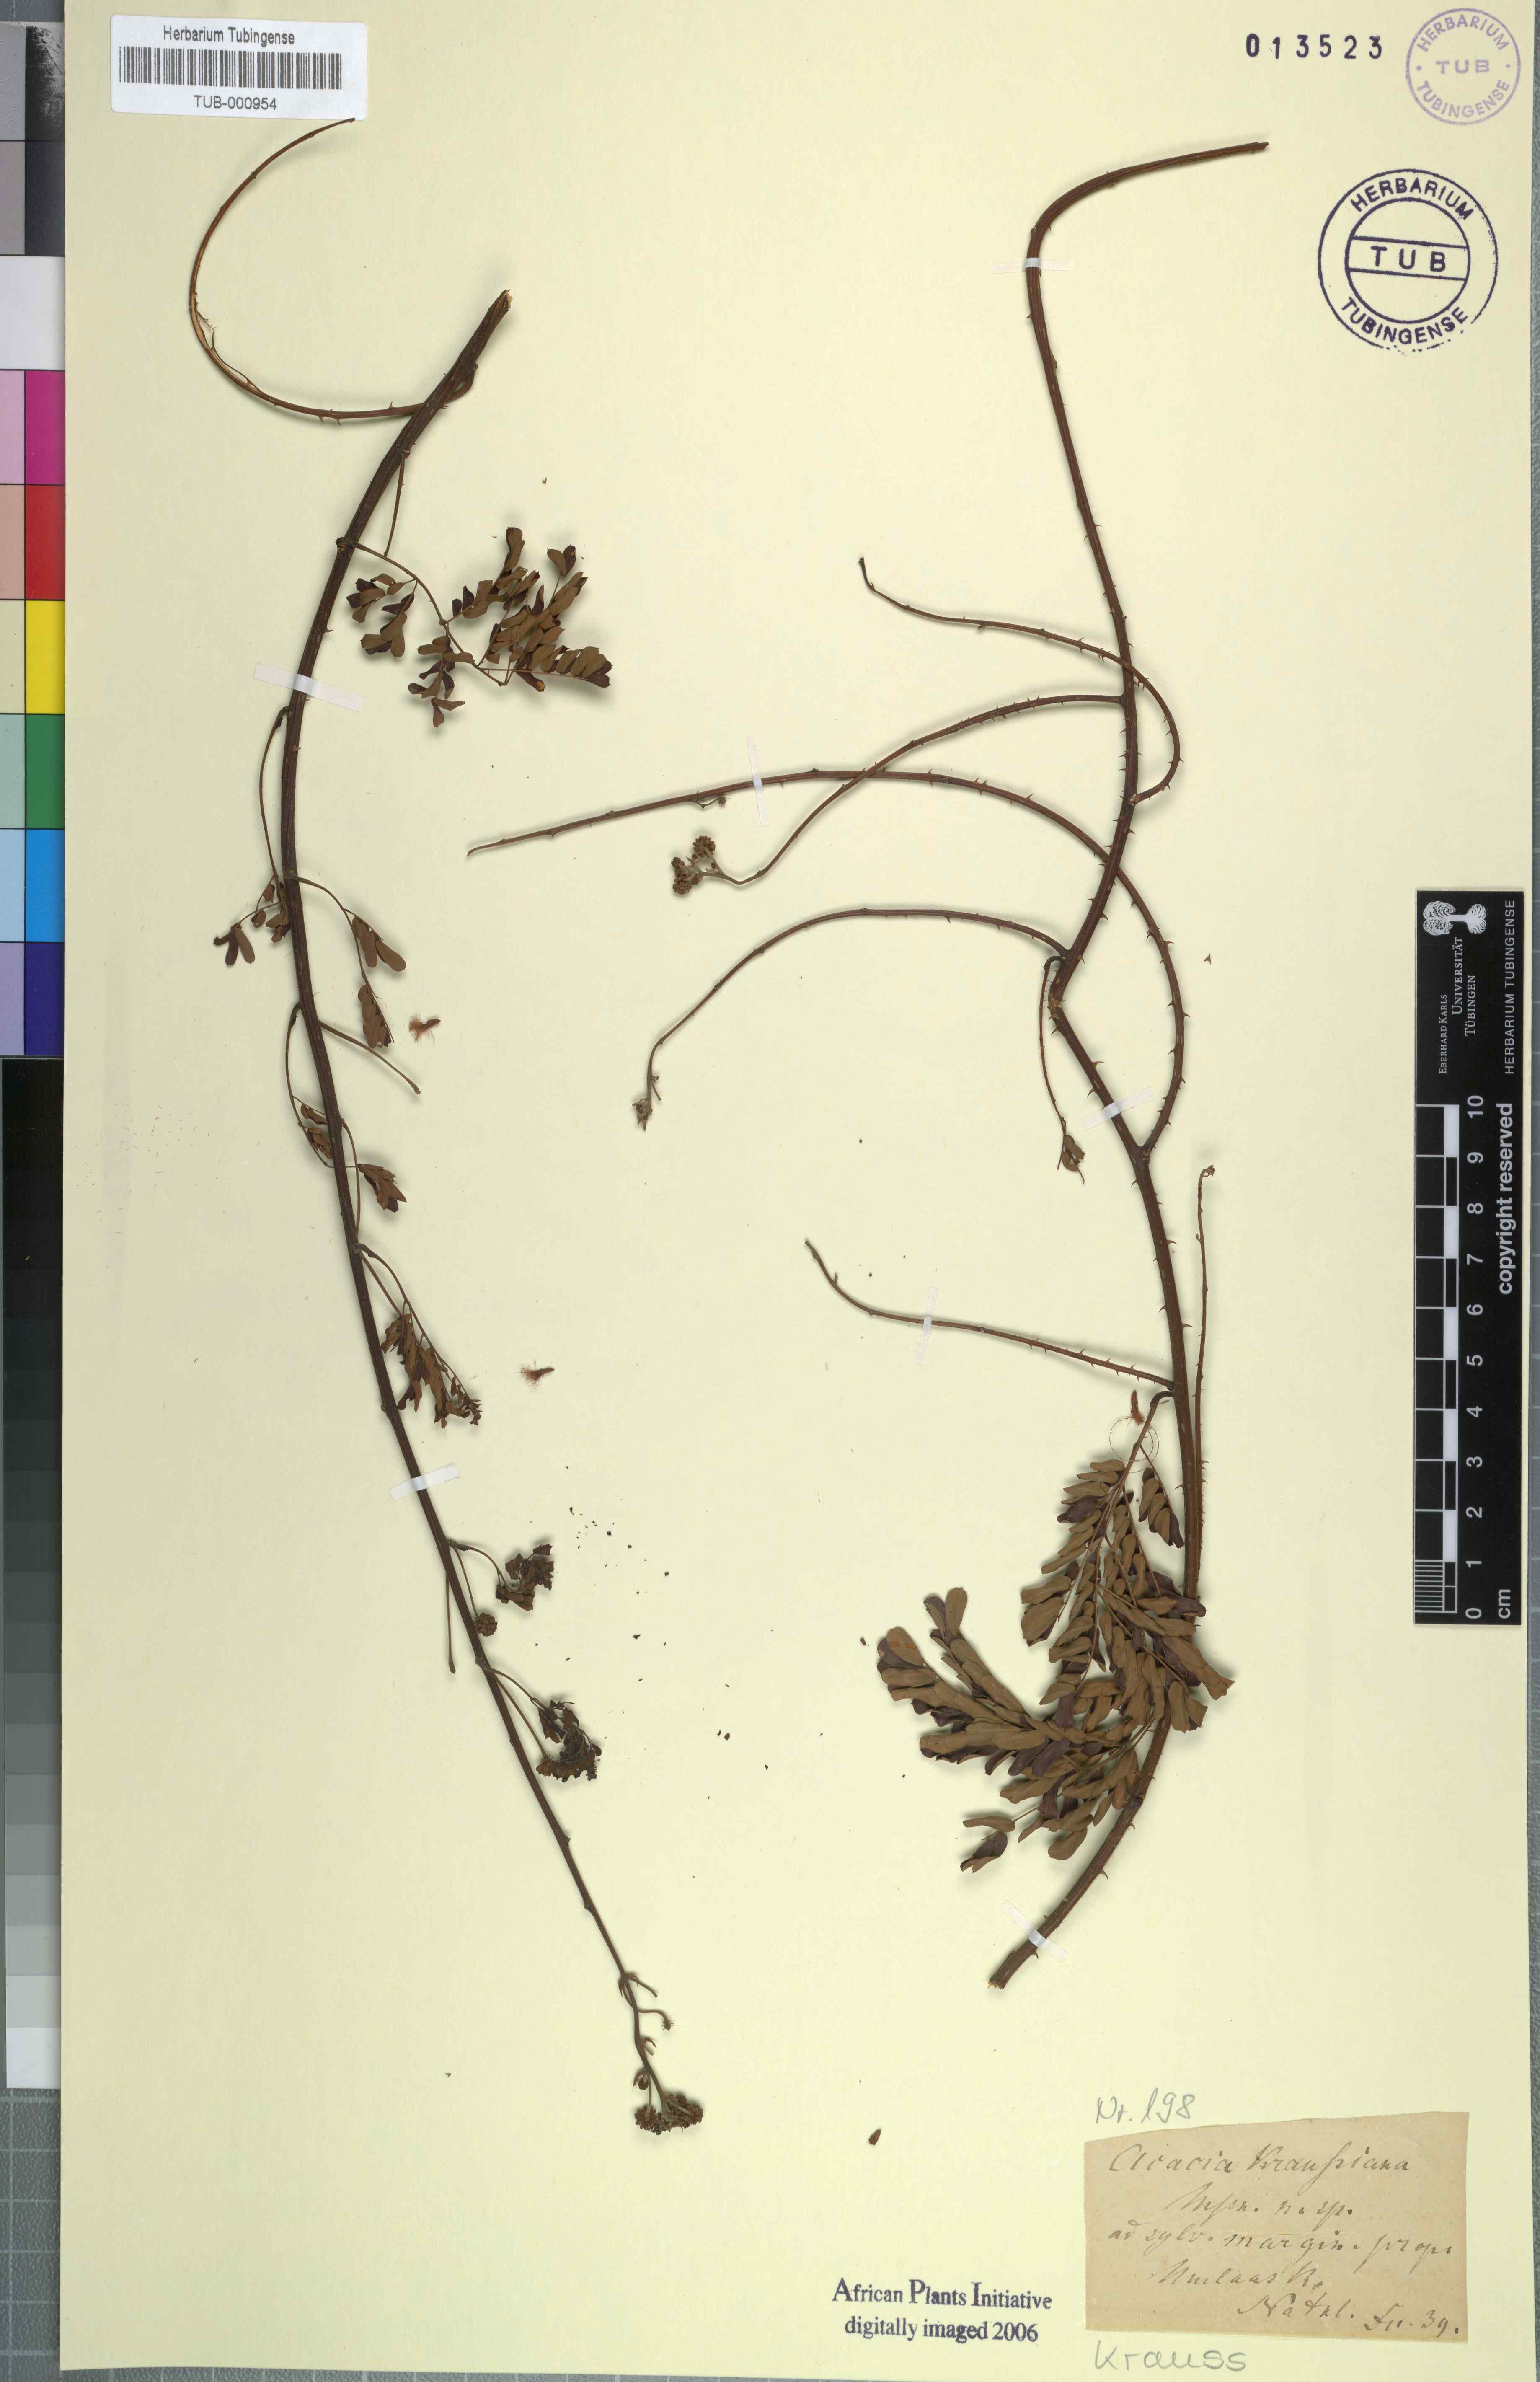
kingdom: Plantae
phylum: Tracheophyta
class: Magnoliopsida
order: Fabales
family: Fabaceae
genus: Senegalia
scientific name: Senegalia kraussiana
